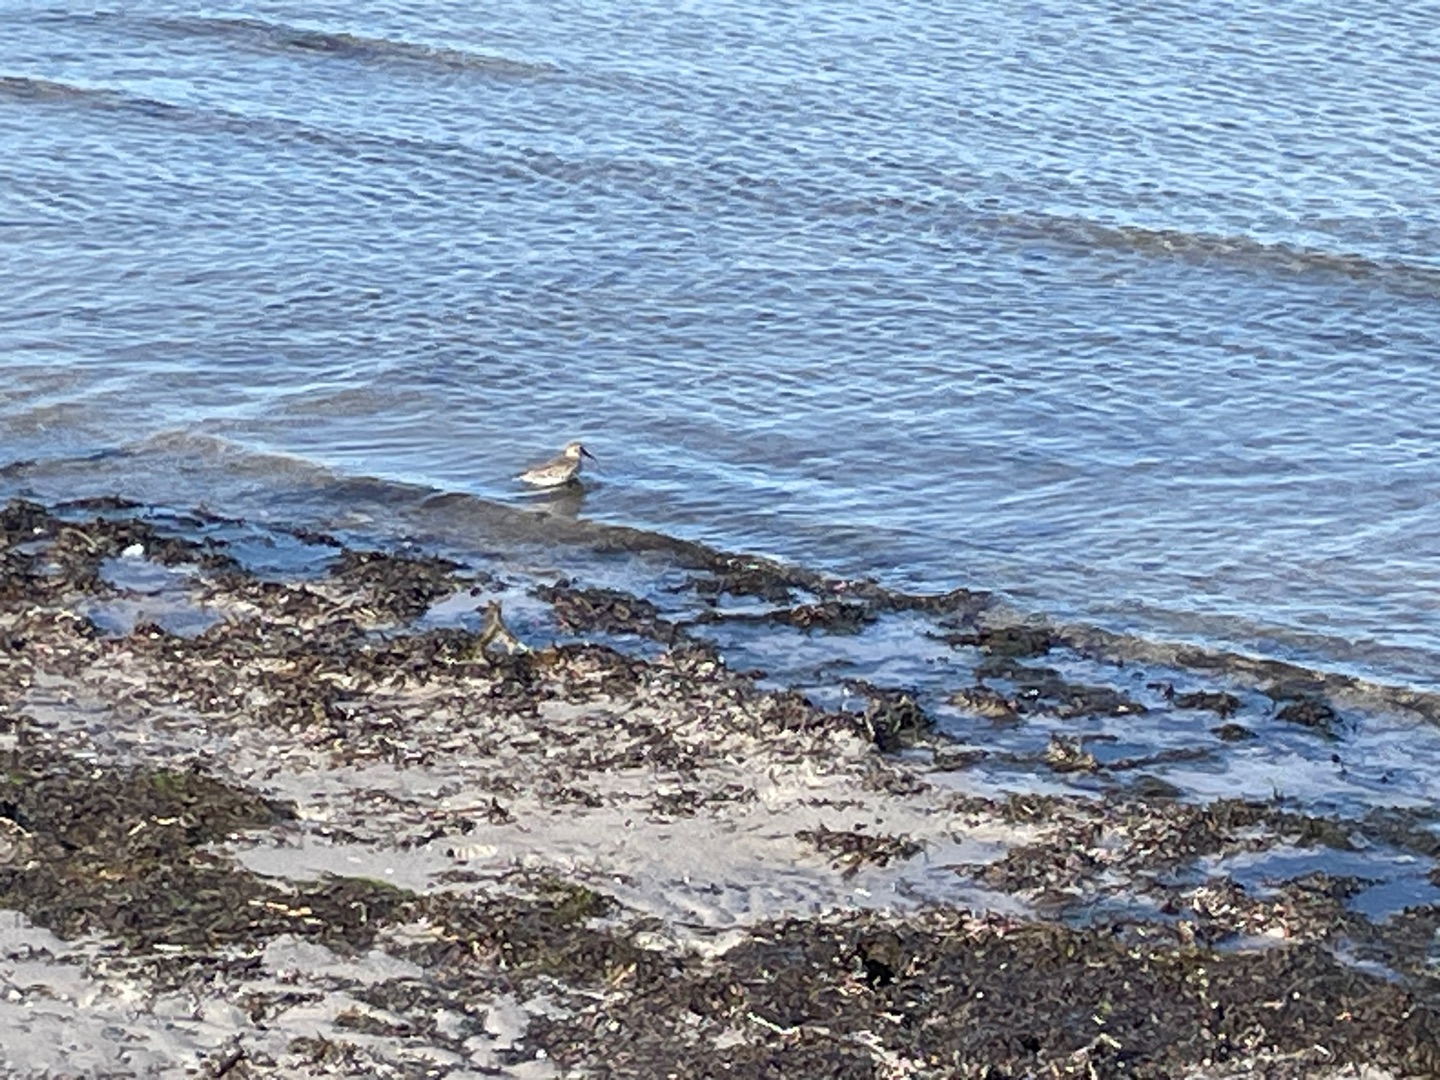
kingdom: Animalia
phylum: Chordata
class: Aves
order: Charadriiformes
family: Scolopacidae
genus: Calidris
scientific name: Calidris canutus
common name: Islandsk ryle
